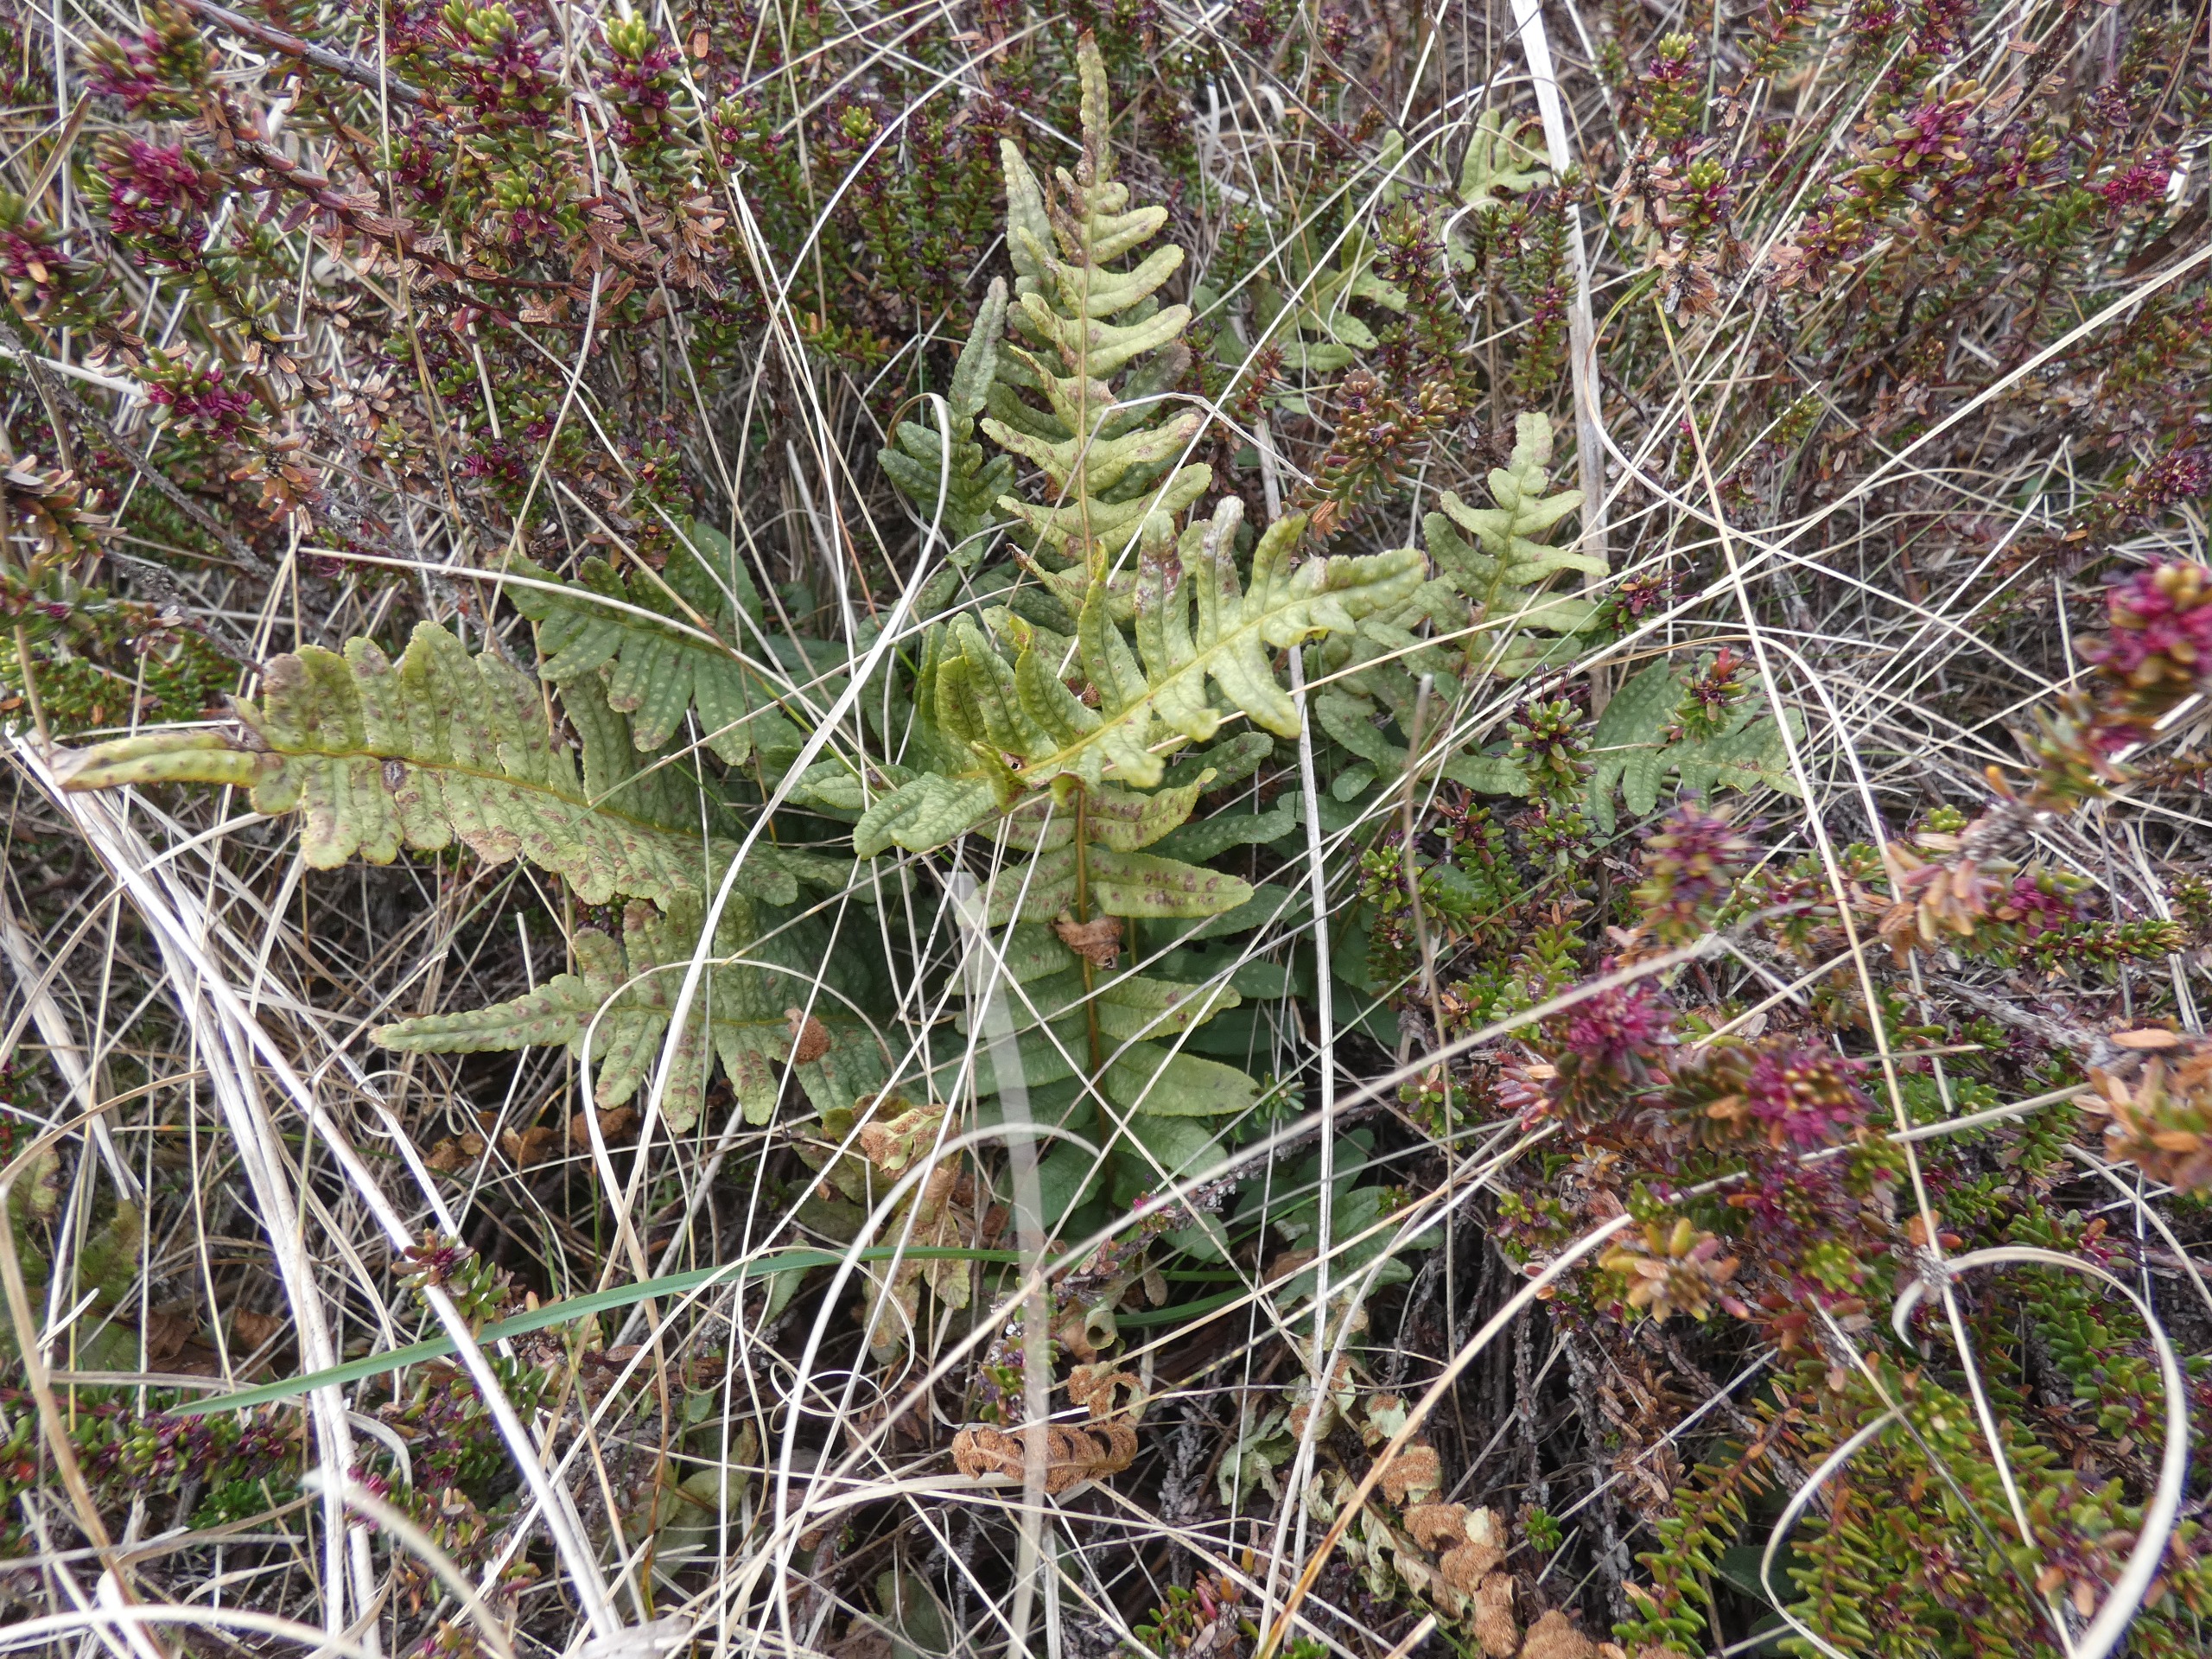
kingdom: Plantae
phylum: Tracheophyta
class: Polypodiopsida
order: Polypodiales
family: Polypodiaceae
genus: Polypodium
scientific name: Polypodium vulgare
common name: Almindelig engelsød
